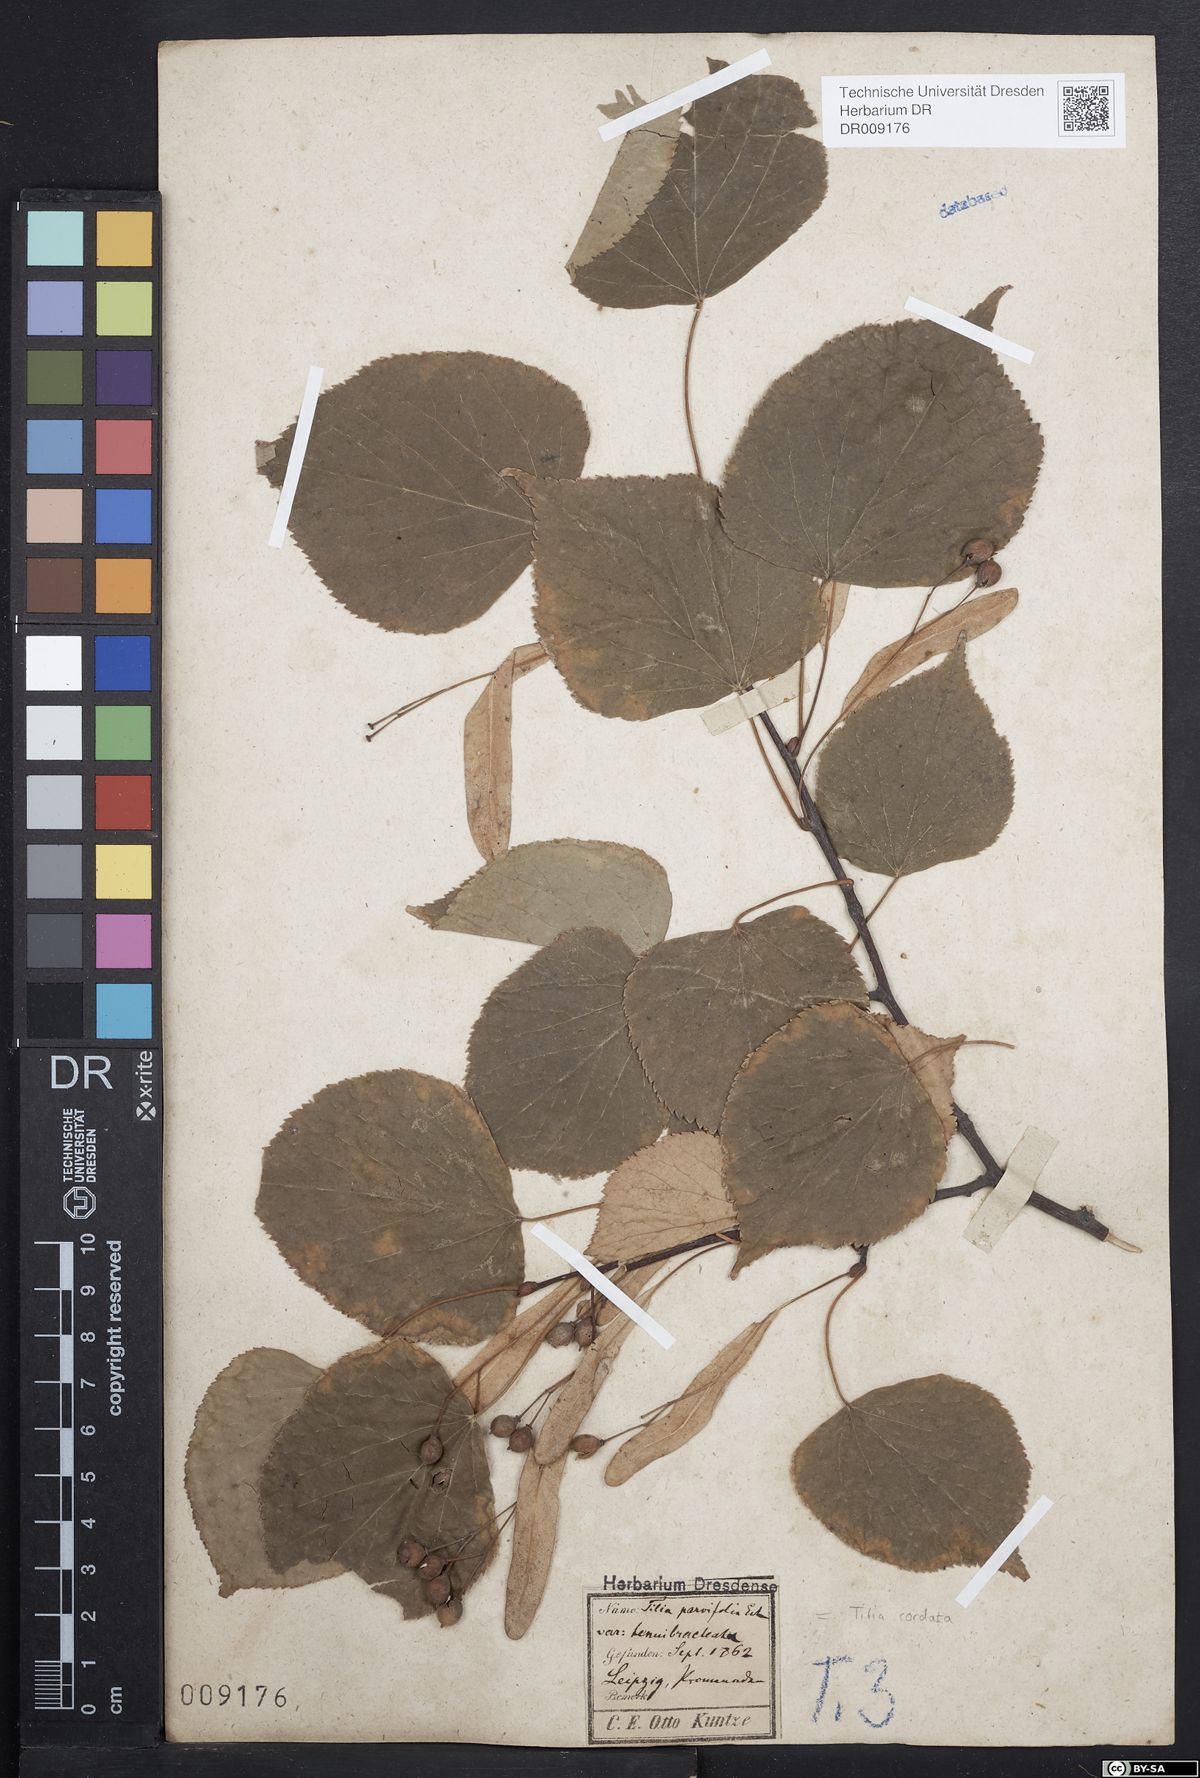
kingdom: Plantae
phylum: Tracheophyta
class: Magnoliopsida
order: Malvales
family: Malvaceae
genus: Tilia
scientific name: Tilia cordata
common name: Small-leaved lime
